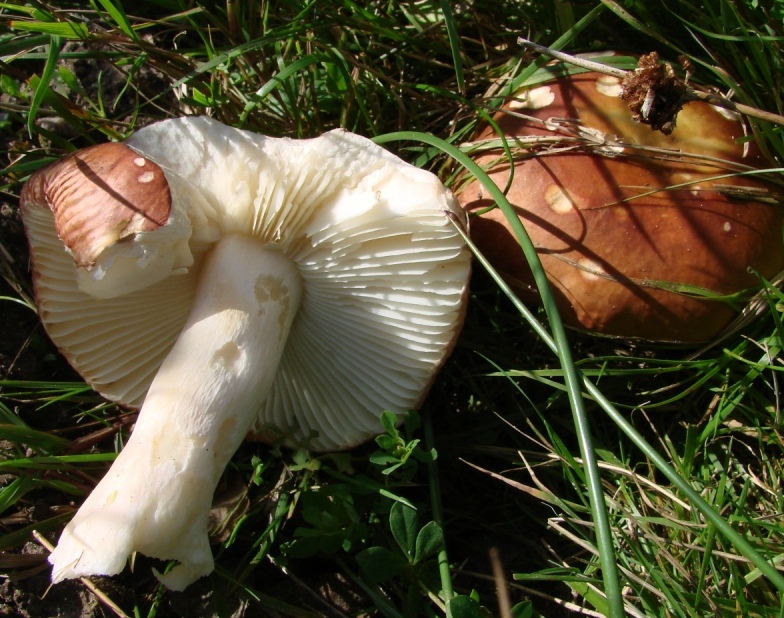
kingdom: Fungi
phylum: Basidiomycota
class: Agaricomycetes
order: Russulales
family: Russulaceae
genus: Russula
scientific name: Russula subrubens
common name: pile-skørhat
